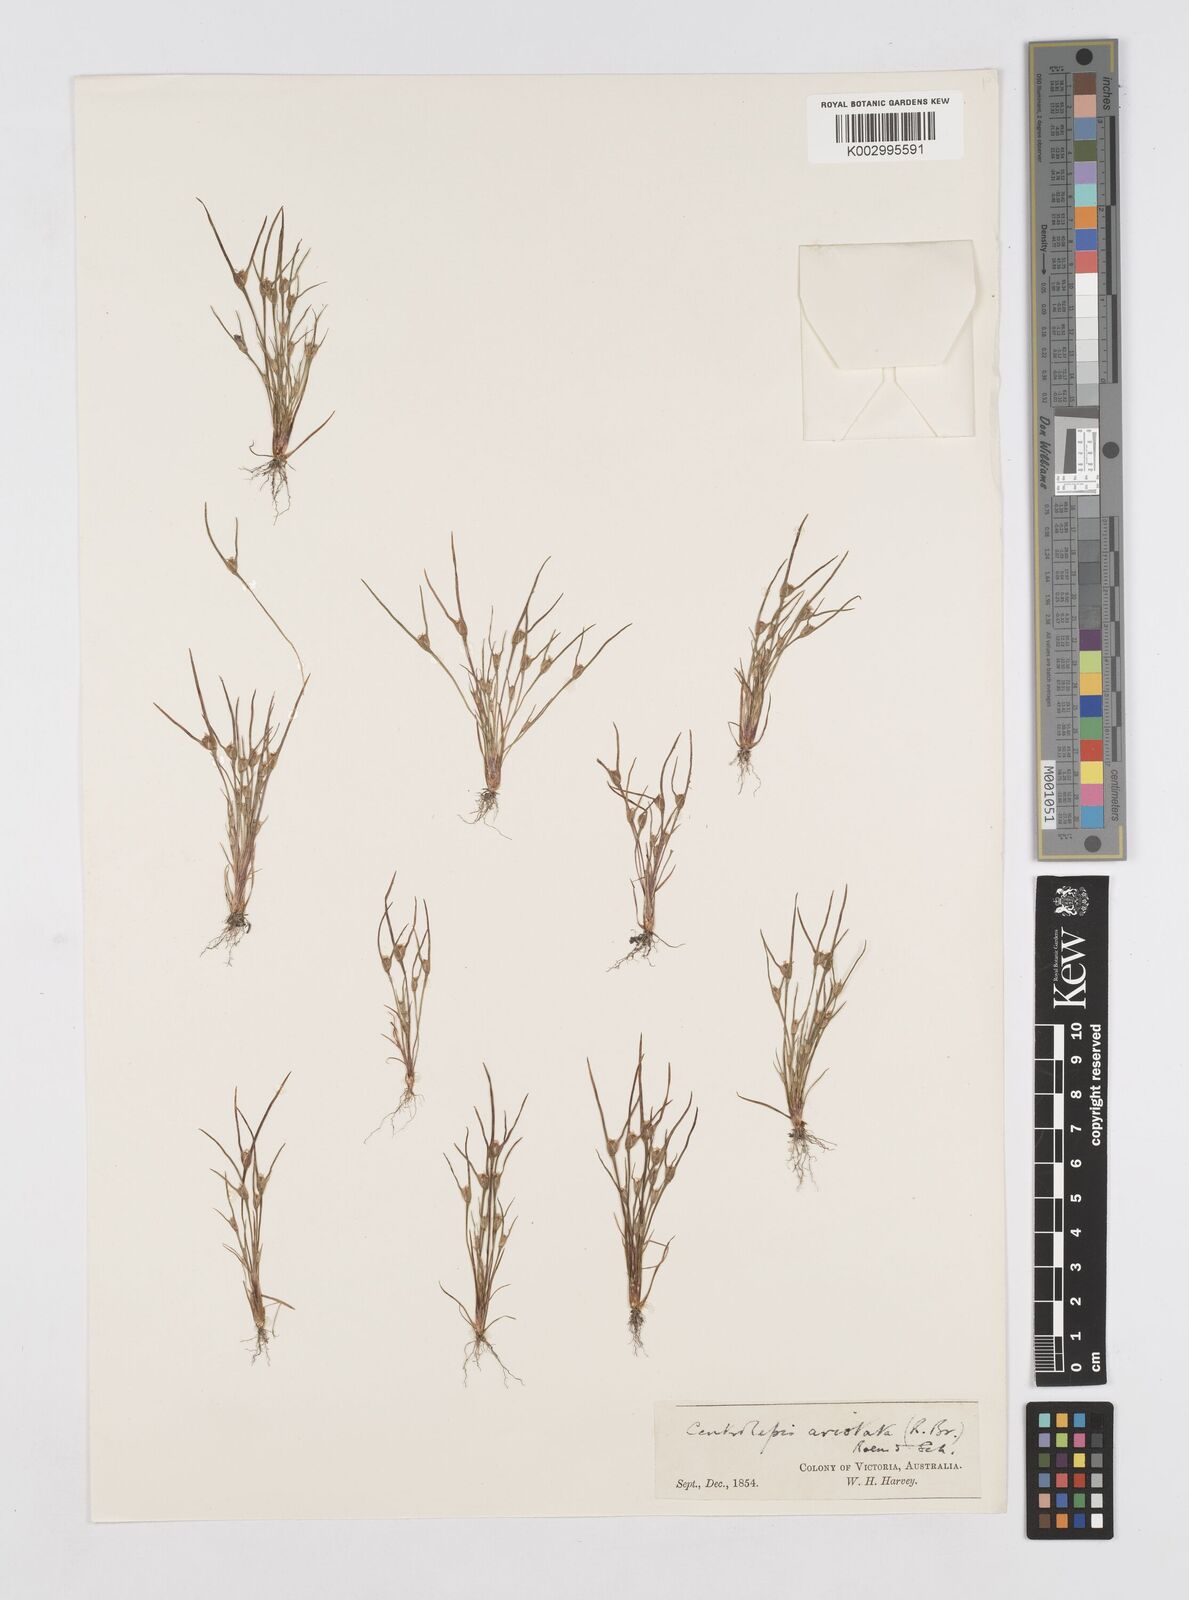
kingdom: Plantae
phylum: Tracheophyta
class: Liliopsida
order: Poales
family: Restionaceae
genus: Centrolepis
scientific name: Centrolepis aristata
